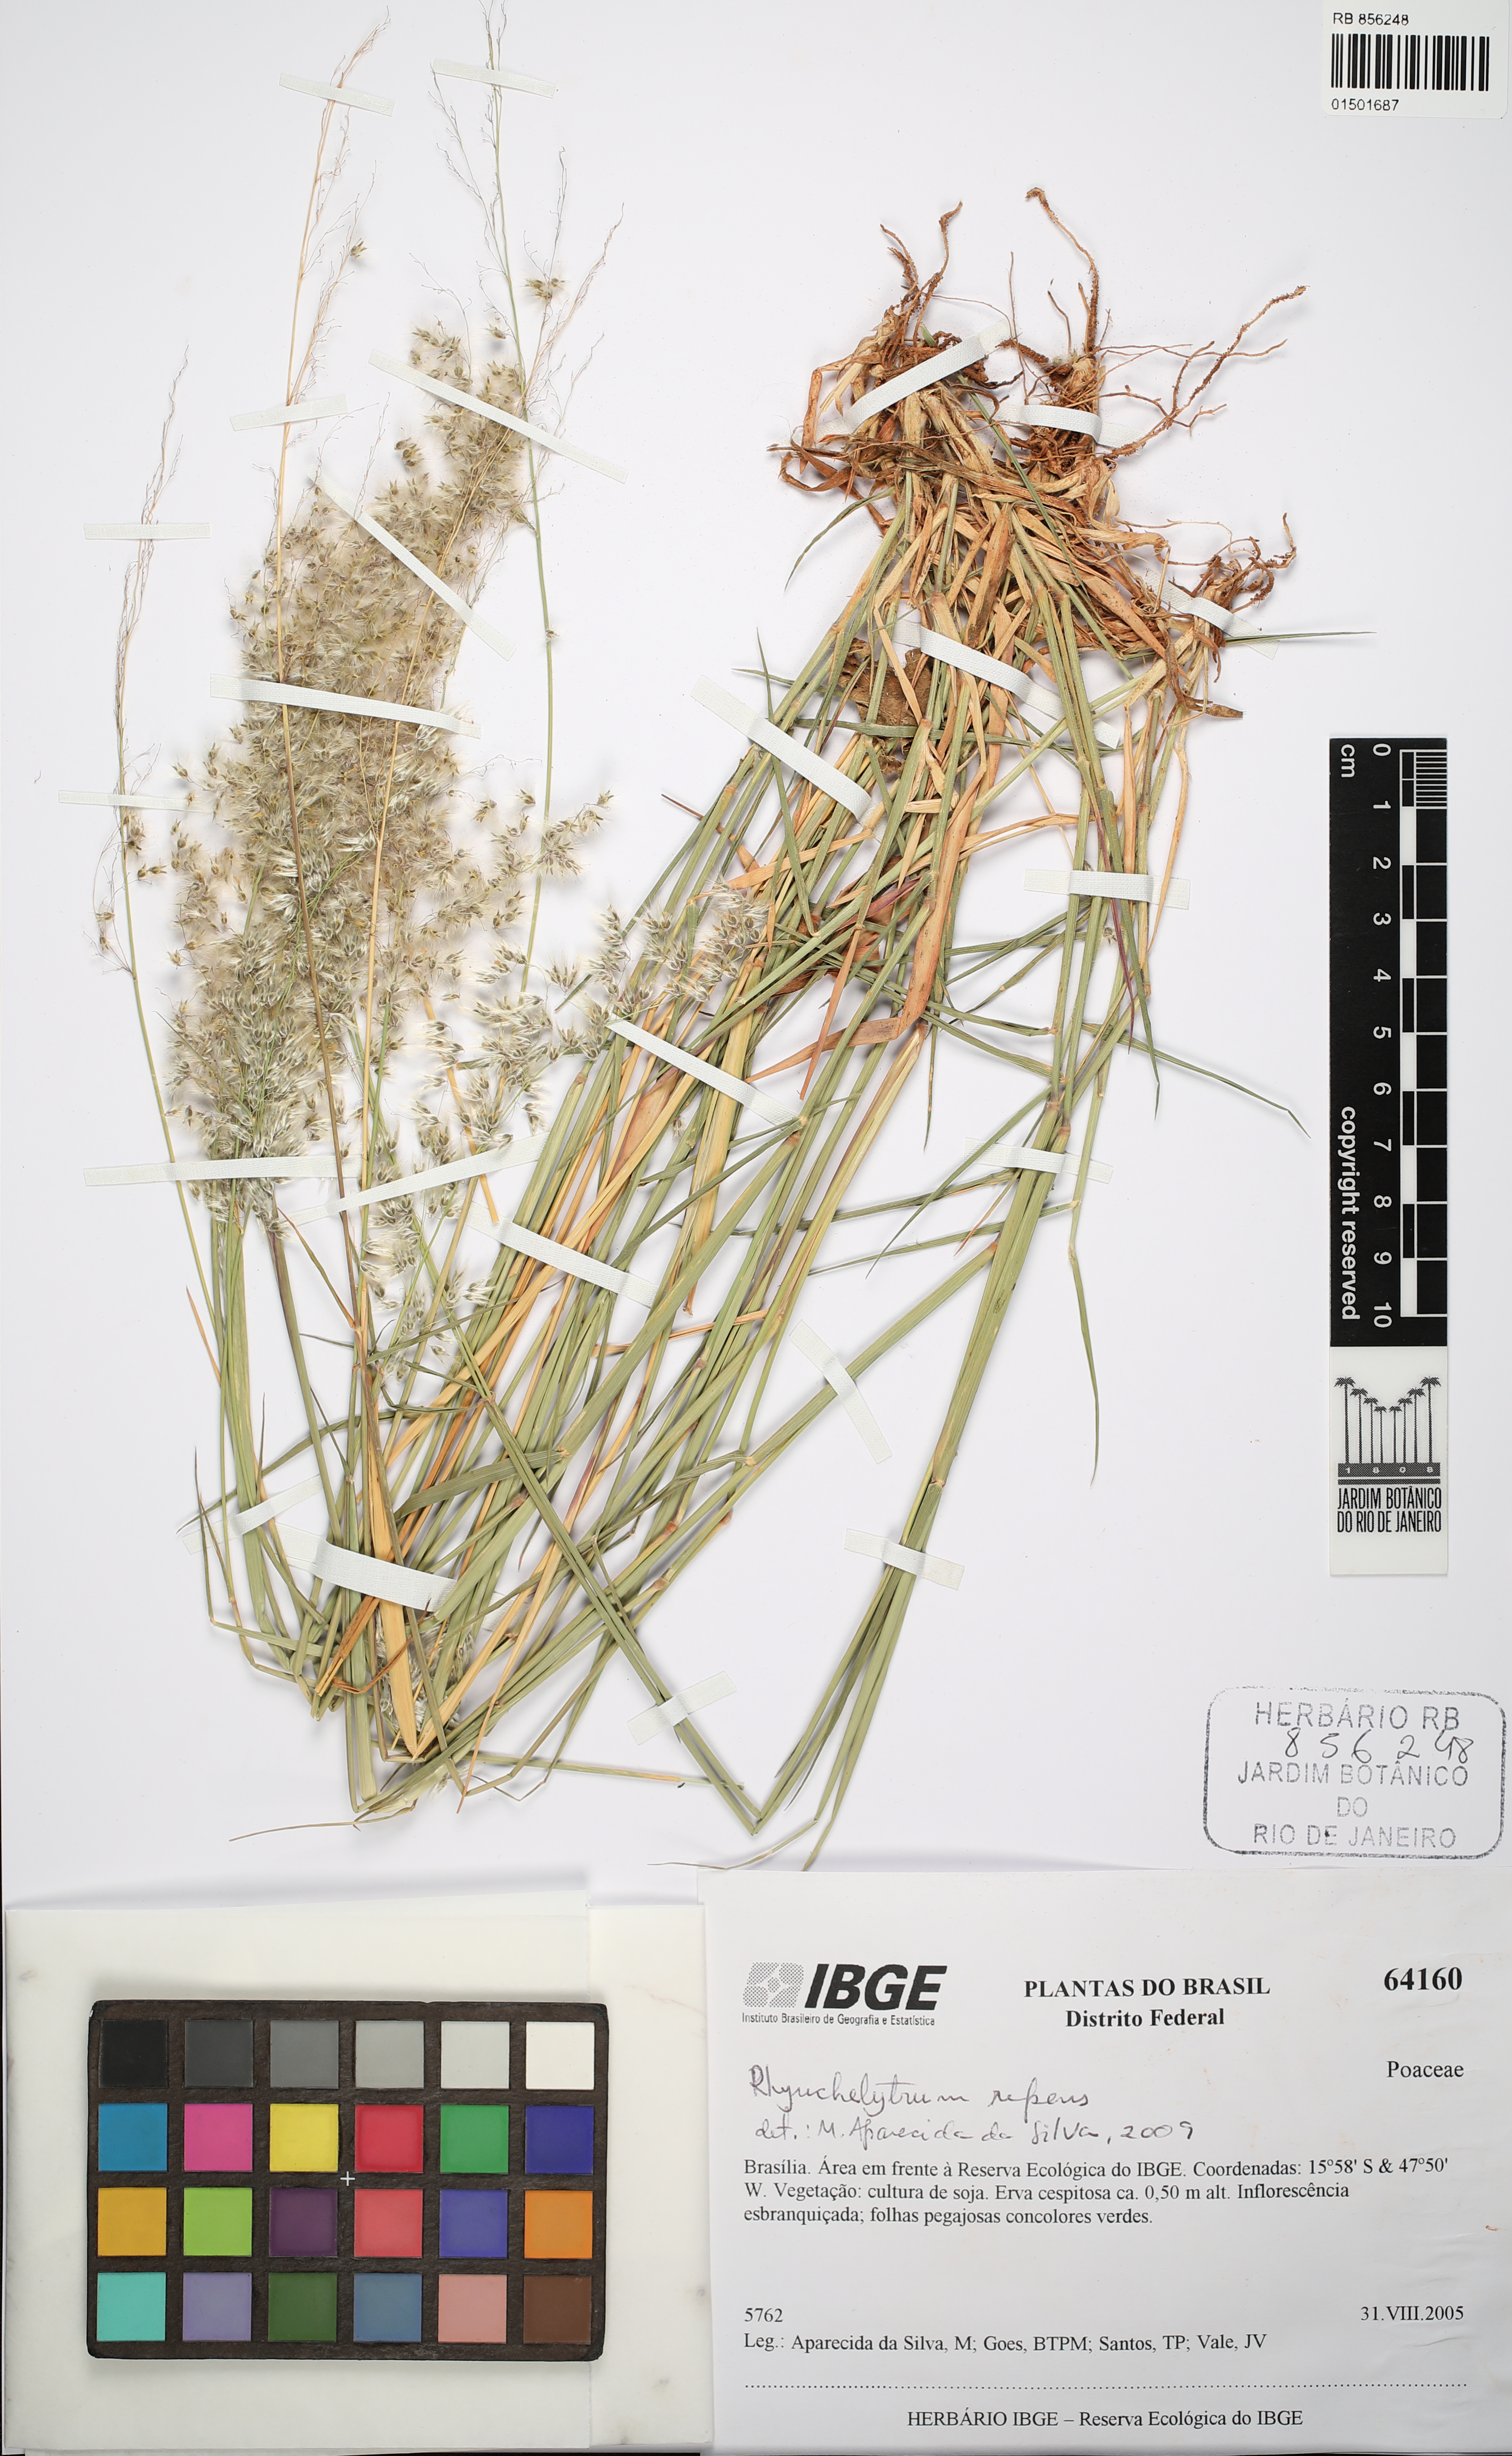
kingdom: Plantae
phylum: Tracheophyta
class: Liliopsida
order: Poales
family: Poaceae
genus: Melinis
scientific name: Melinis repens
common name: Rose natal grass
